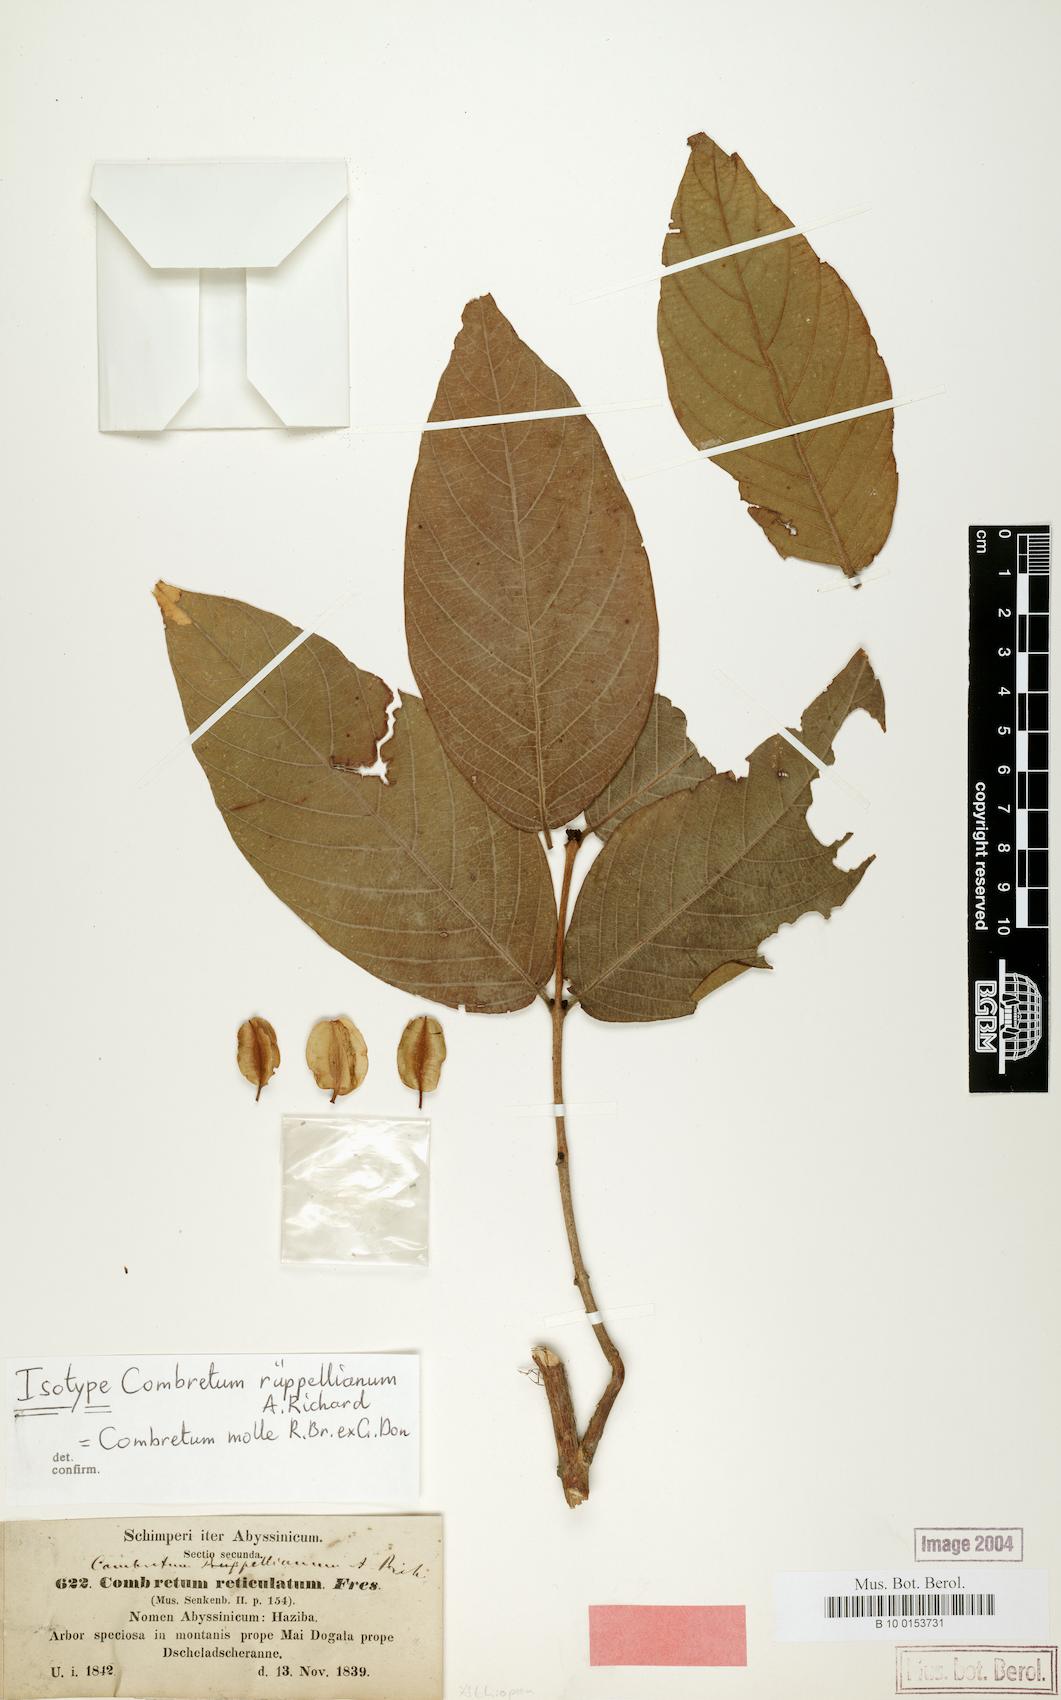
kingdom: Plantae
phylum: Tracheophyta
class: Magnoliopsida
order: Myrtales
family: Combretaceae
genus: Combretum
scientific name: Combretum molle
